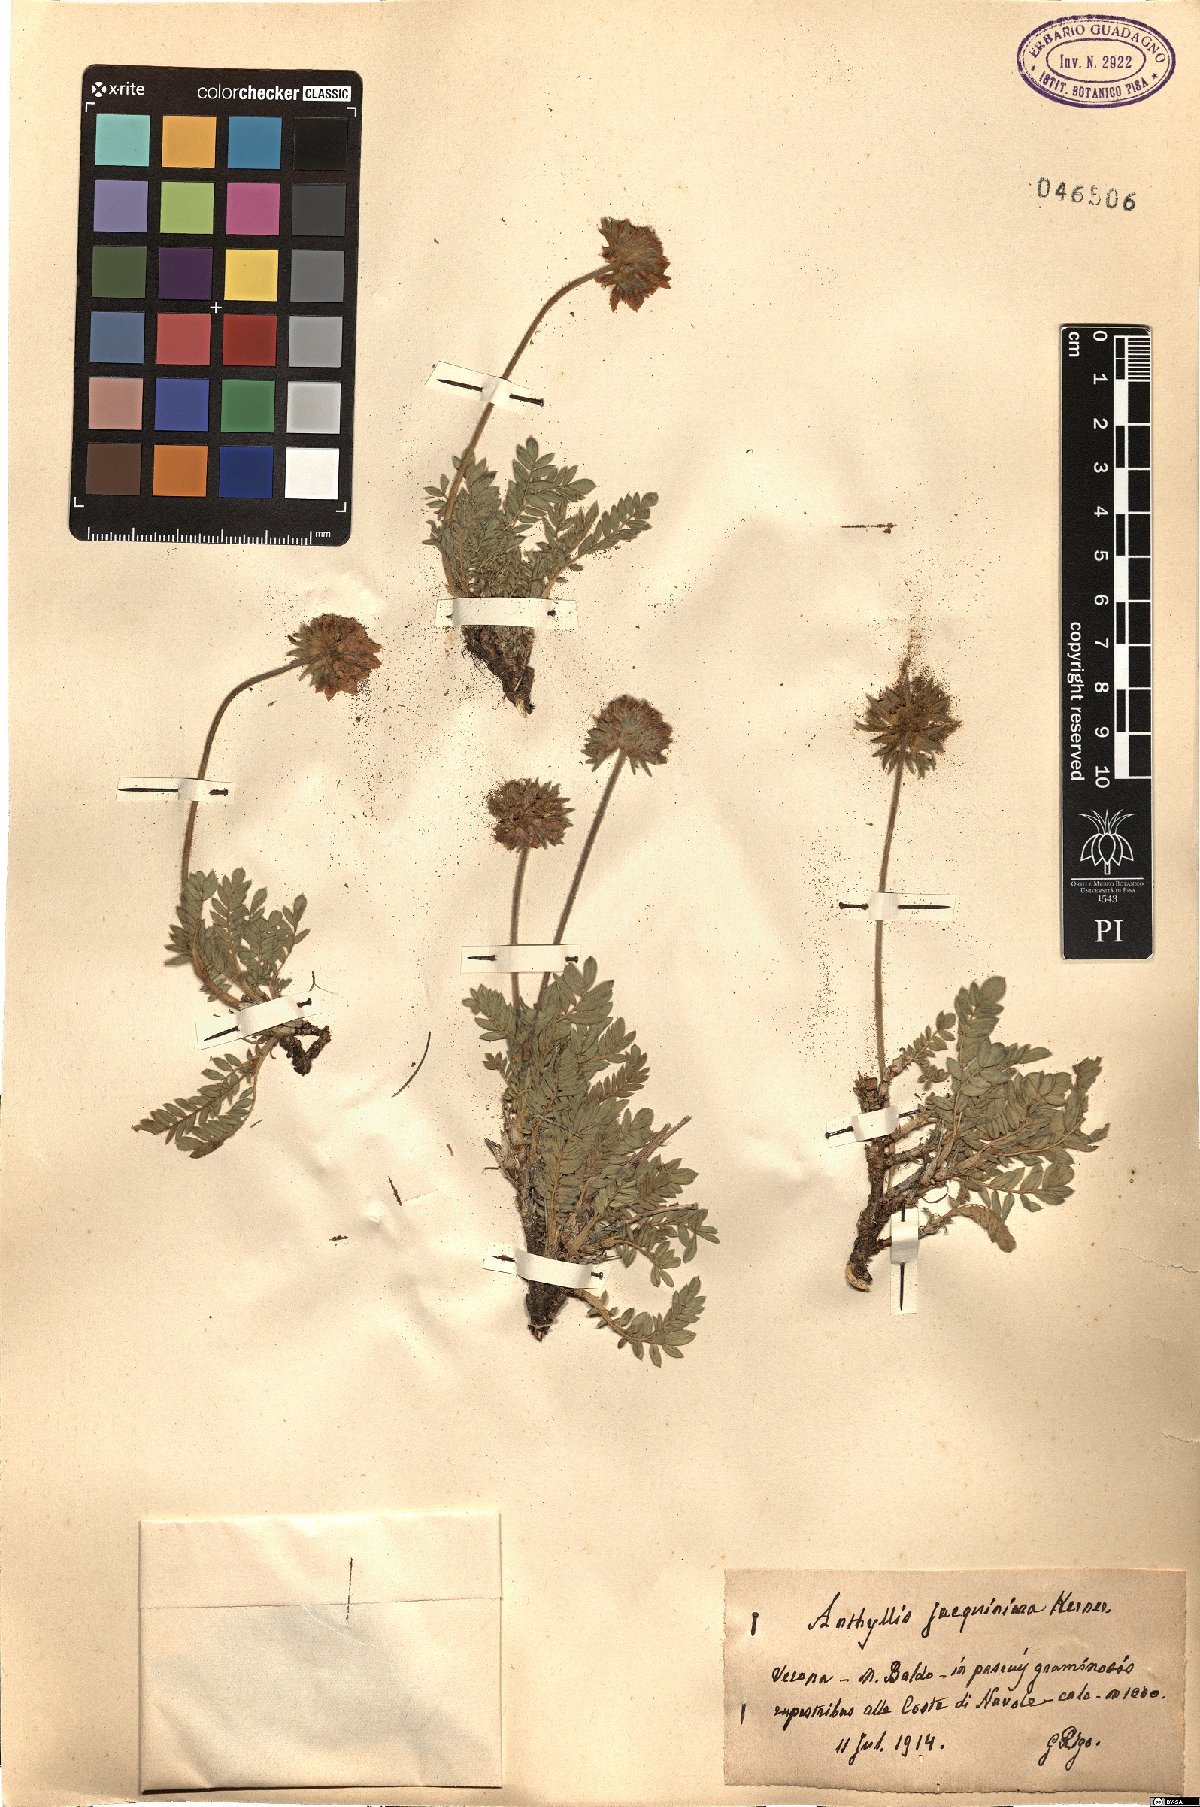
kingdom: Plantae
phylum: Tracheophyta
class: Magnoliopsida
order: Fabales
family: Fabaceae
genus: Anthyllis
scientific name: Anthyllis montana
